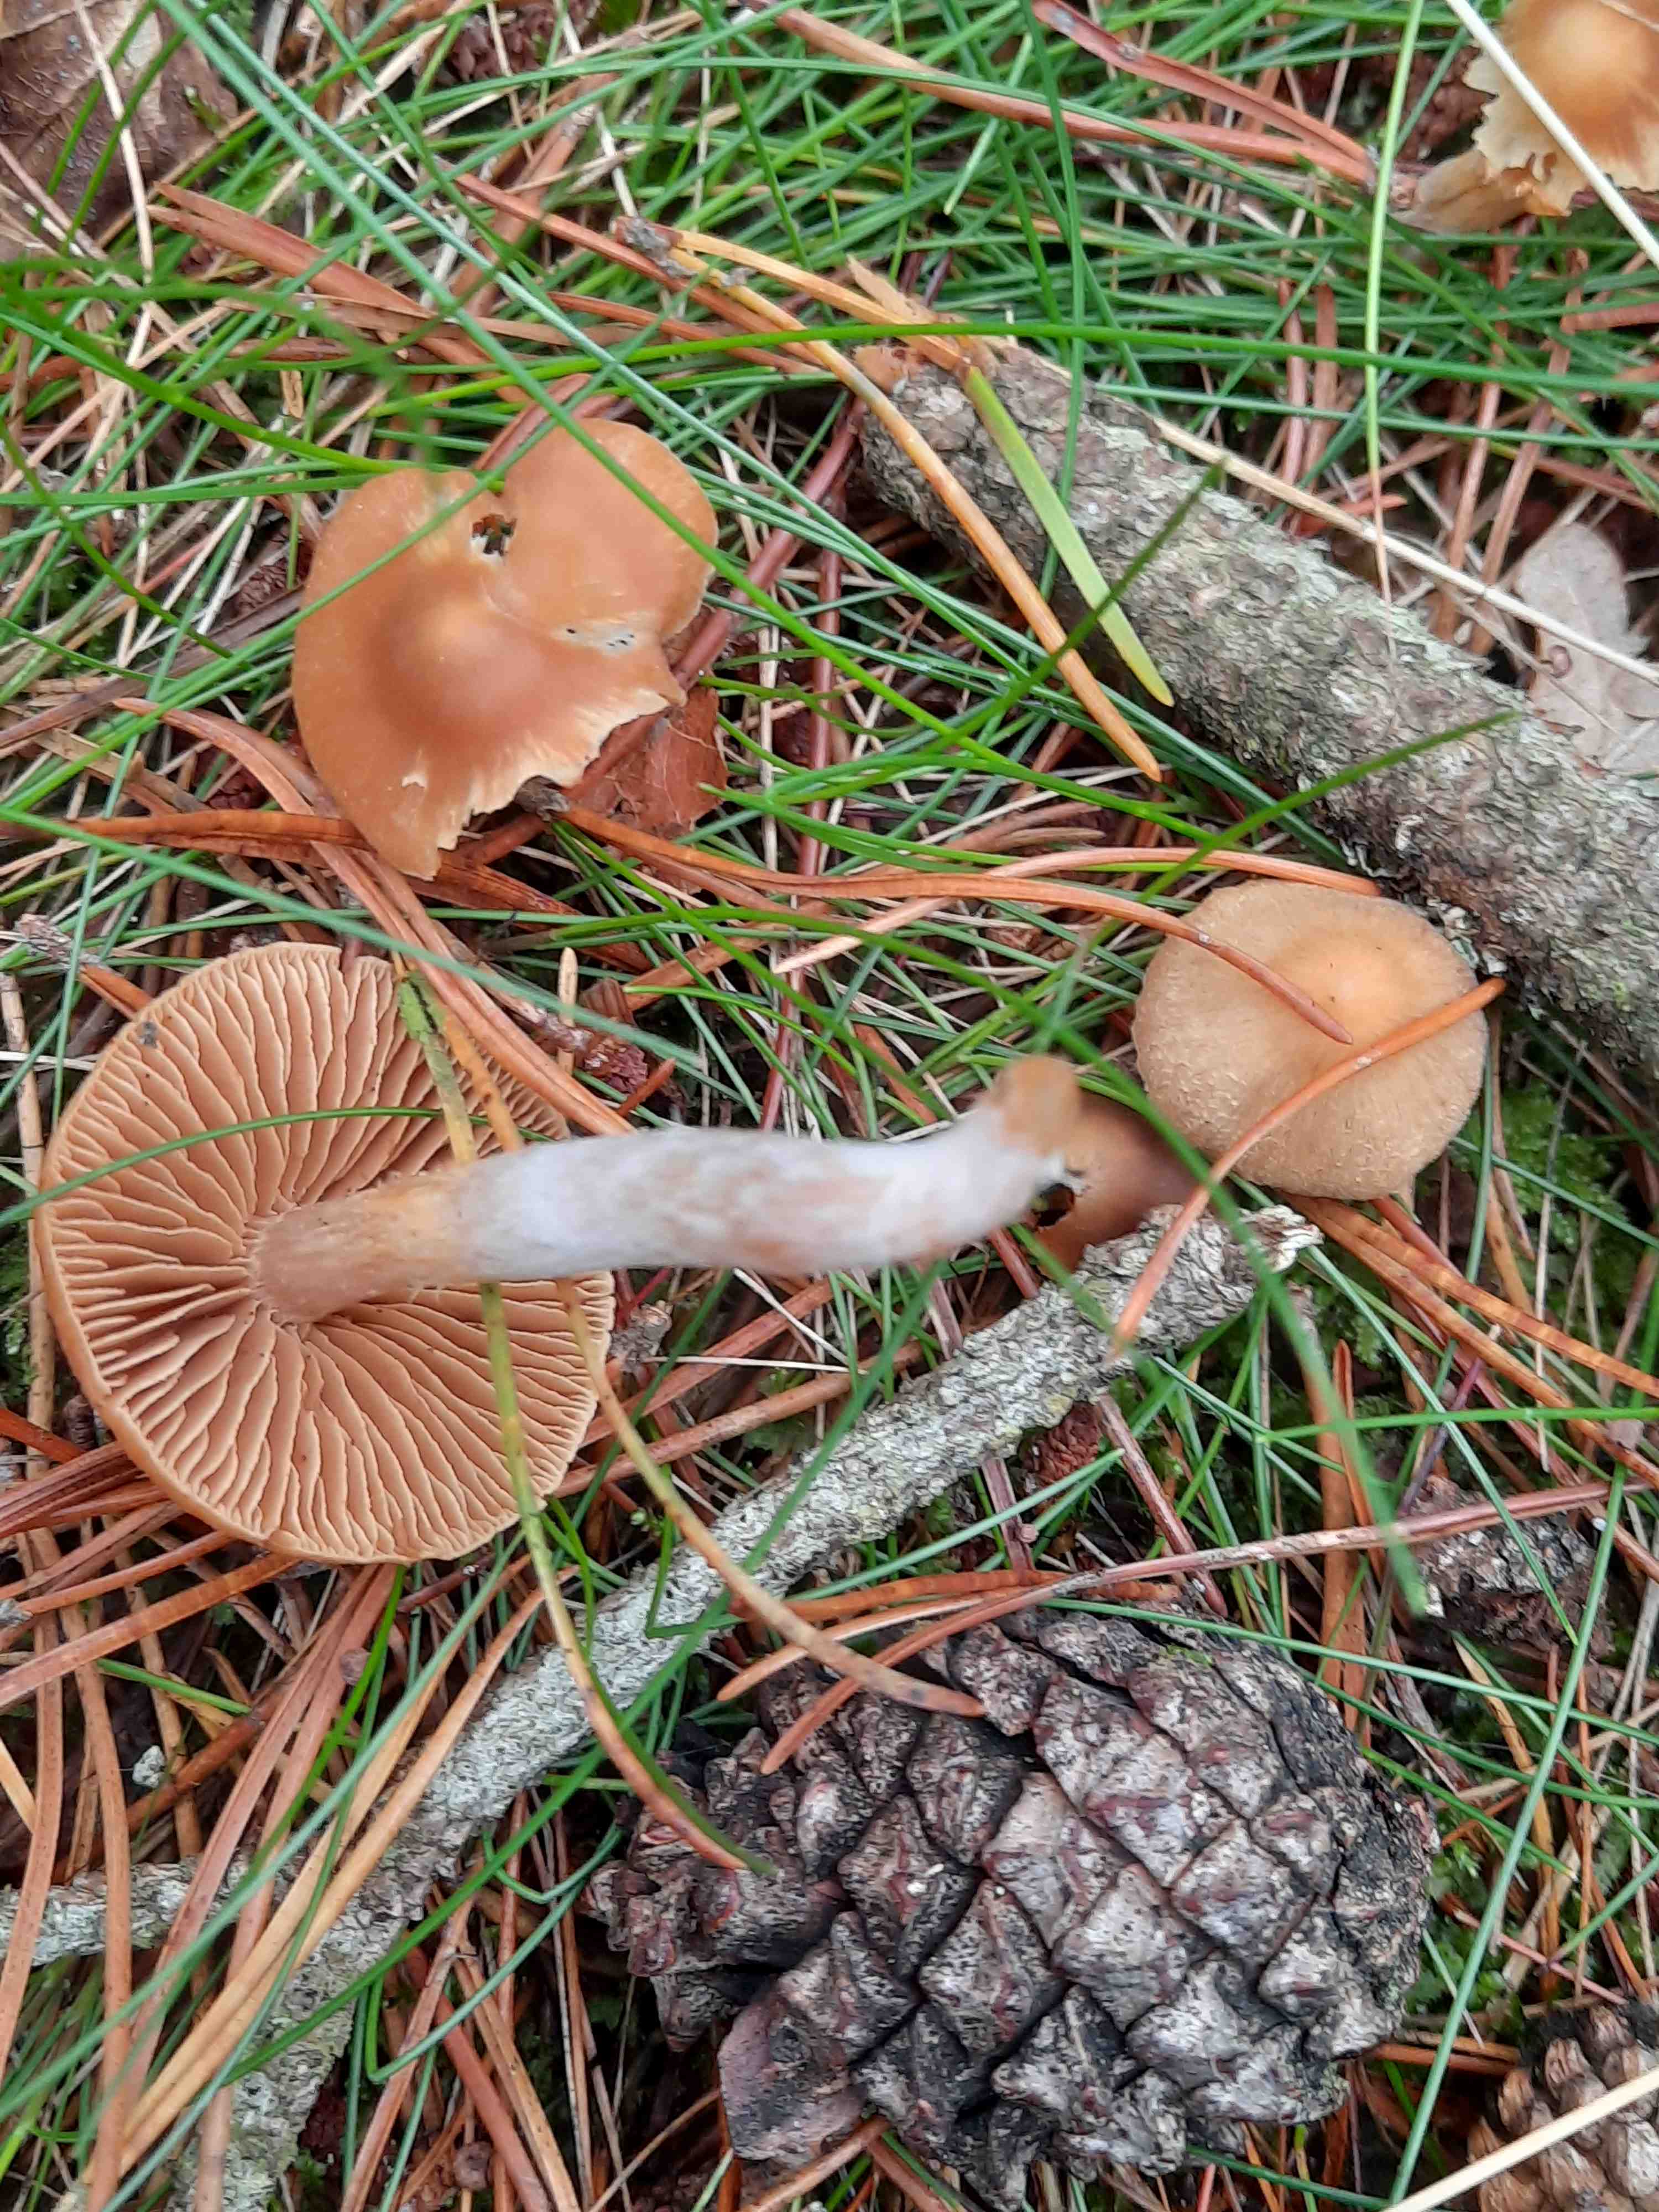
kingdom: Fungi
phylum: Basidiomycota
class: Agaricomycetes
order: Agaricales
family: Cortinariaceae
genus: Cortinarius
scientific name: Cortinarius
